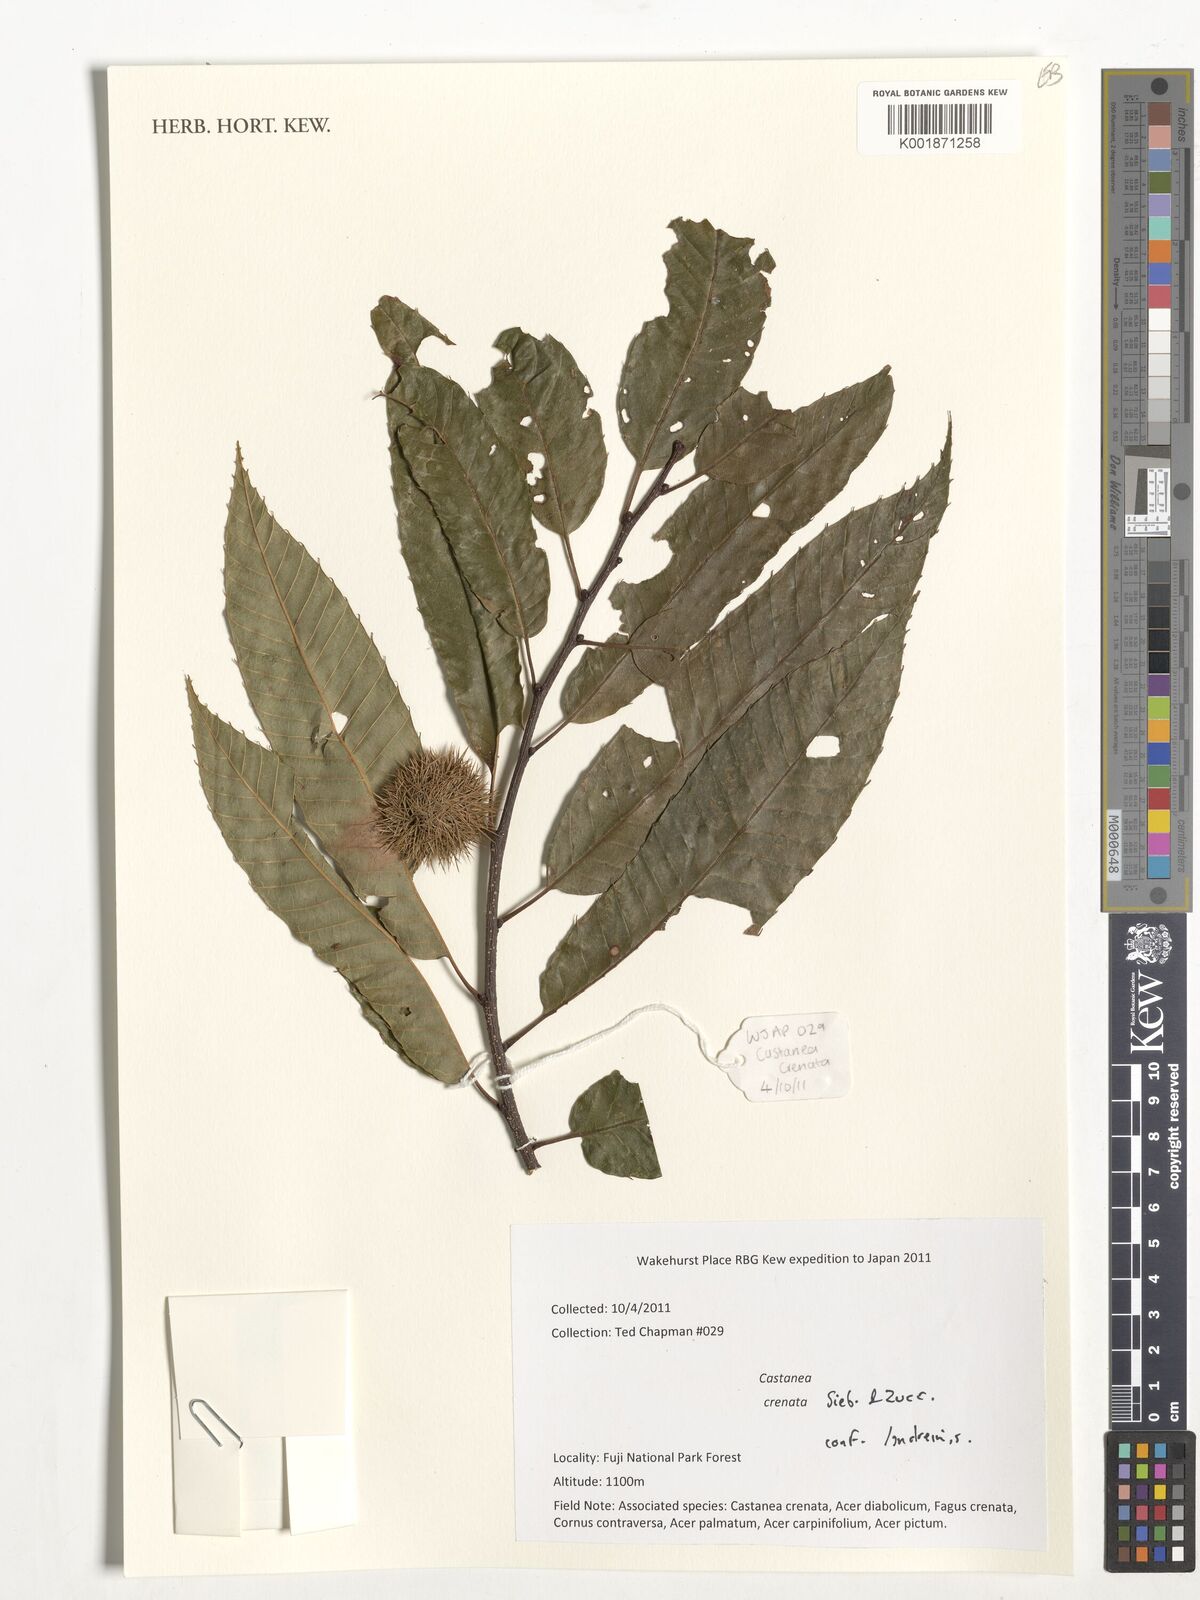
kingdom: Plantae
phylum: Tracheophyta
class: Magnoliopsida
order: Fagales
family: Fagaceae
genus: Castanea
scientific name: Castanea crenata
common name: Japanese chestnut
